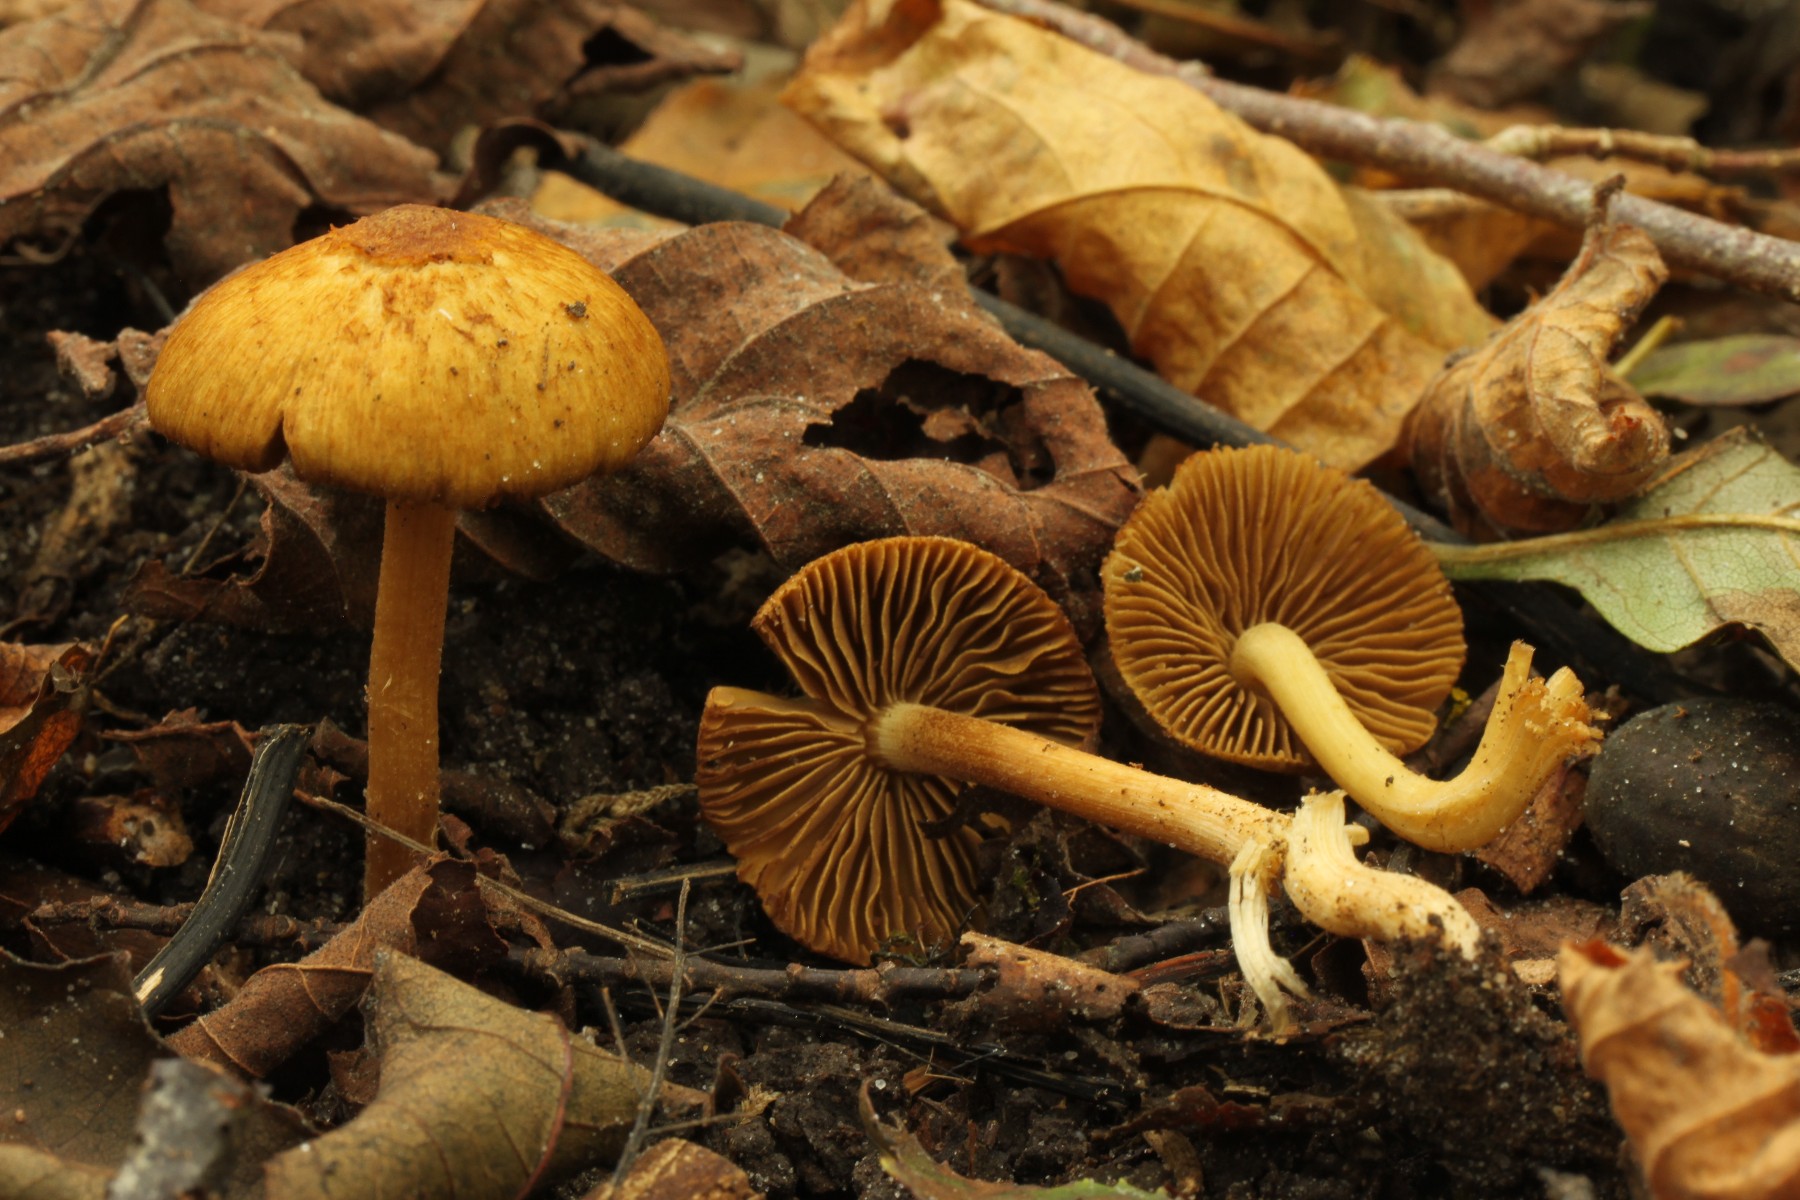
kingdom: Fungi
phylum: Basidiomycota
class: Agaricomycetes
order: Agaricales
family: Inocybaceae
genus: Inocybe
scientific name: Inocybe pholiotinoides
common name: dansende trævlhat
